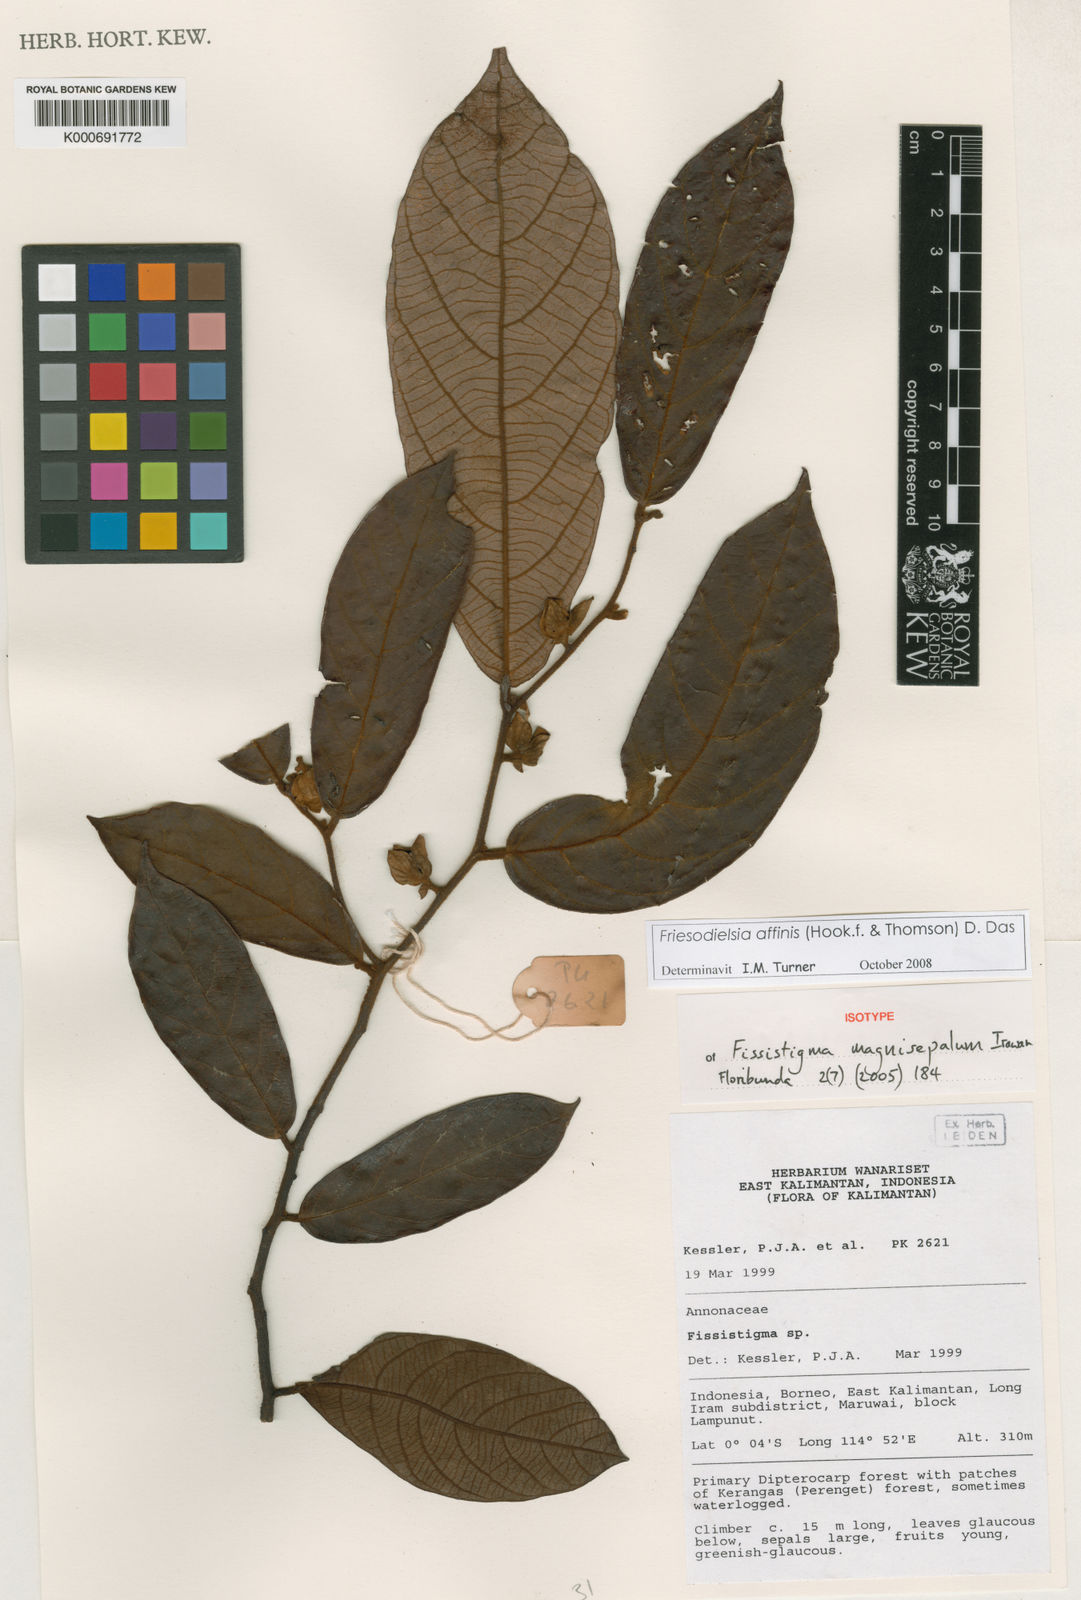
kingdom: Plantae
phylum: Tracheophyta
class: Magnoliopsida
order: Magnoliales
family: Annonaceae
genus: Friesodielsia
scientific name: Friesodielsia affinis
